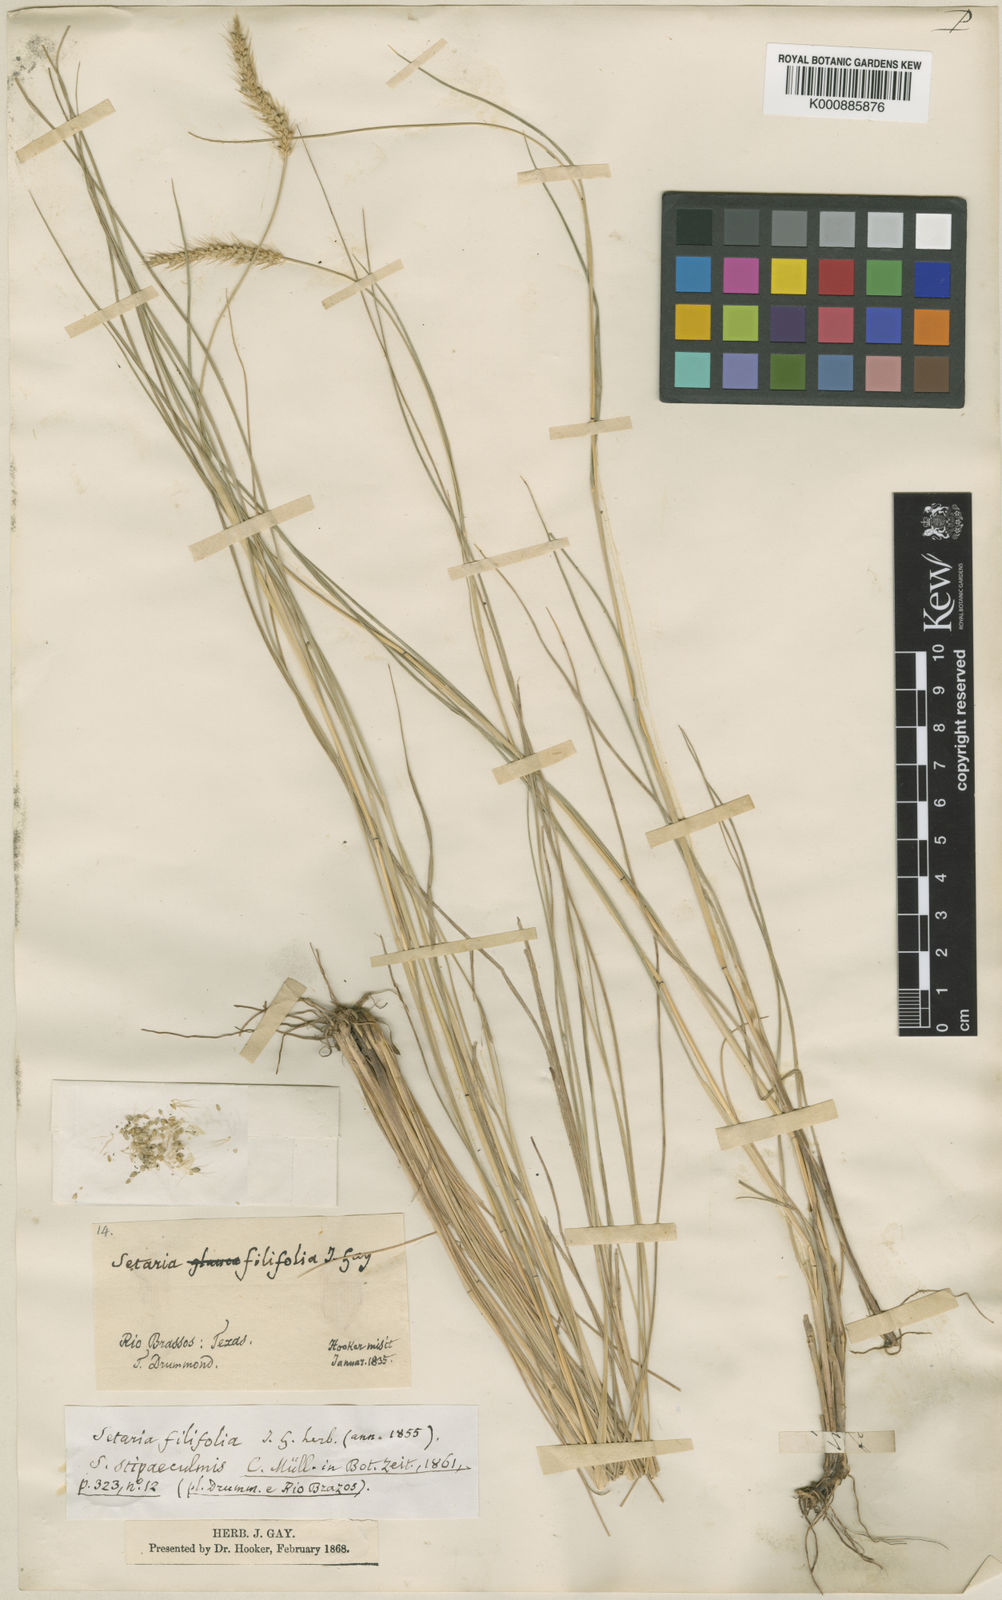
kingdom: Plantae
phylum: Tracheophyta
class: Liliopsida
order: Poales
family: Poaceae
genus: Setaria
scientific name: Setaria
